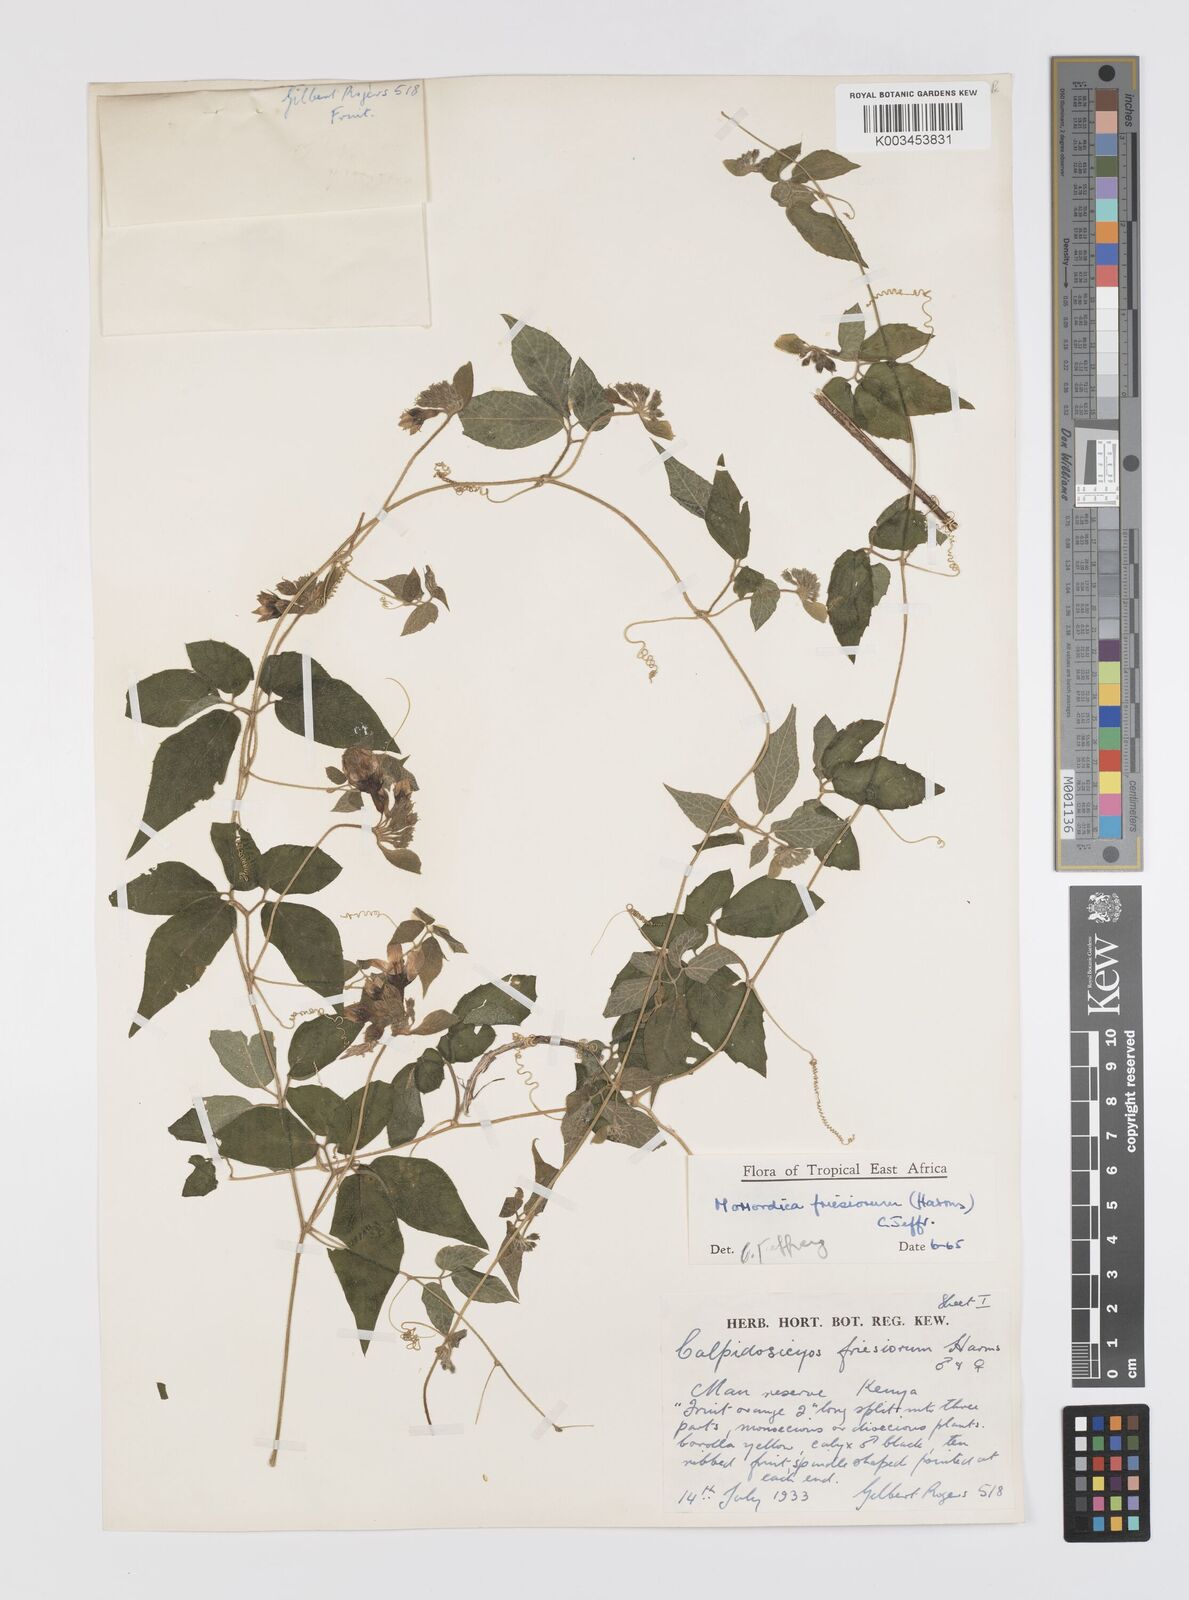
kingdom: Plantae
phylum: Tracheophyta
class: Magnoliopsida
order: Cucurbitales
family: Cucurbitaceae
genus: Momordica
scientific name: Momordica friesiorum
